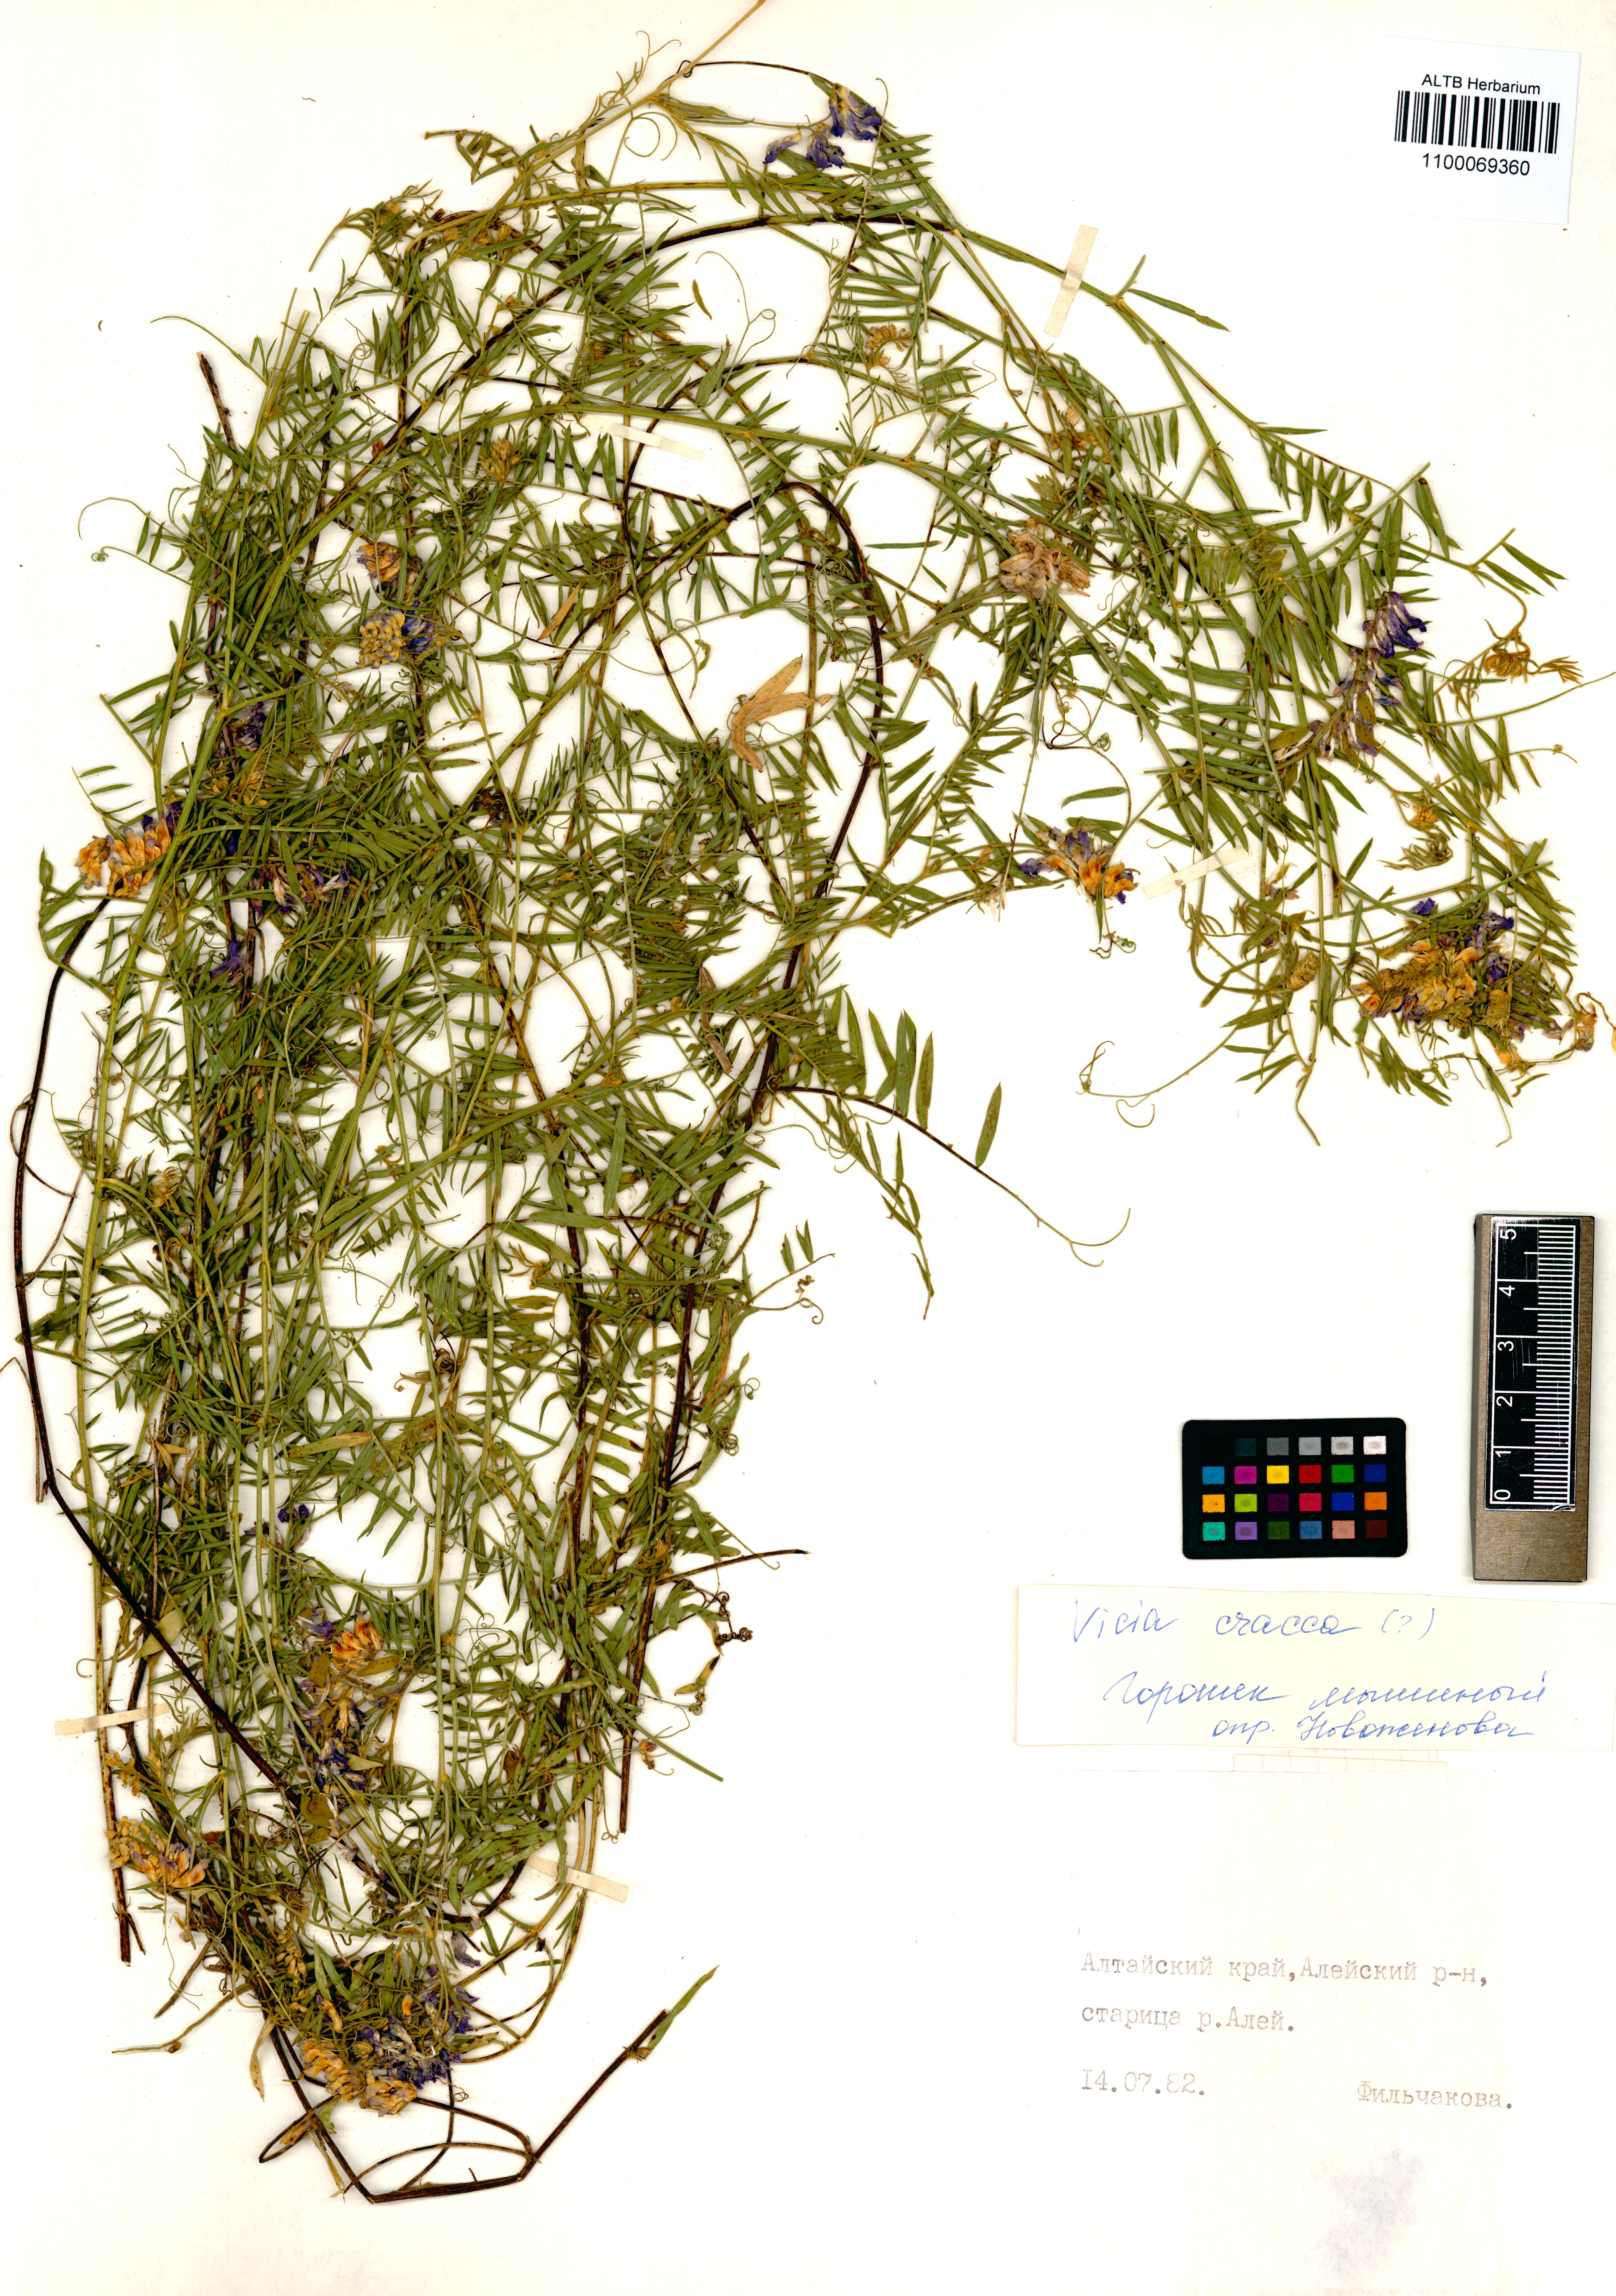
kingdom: Plantae
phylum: Tracheophyta
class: Magnoliopsida
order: Fabales
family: Fabaceae
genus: Vicia
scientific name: Vicia cracca
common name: Bird vetch
